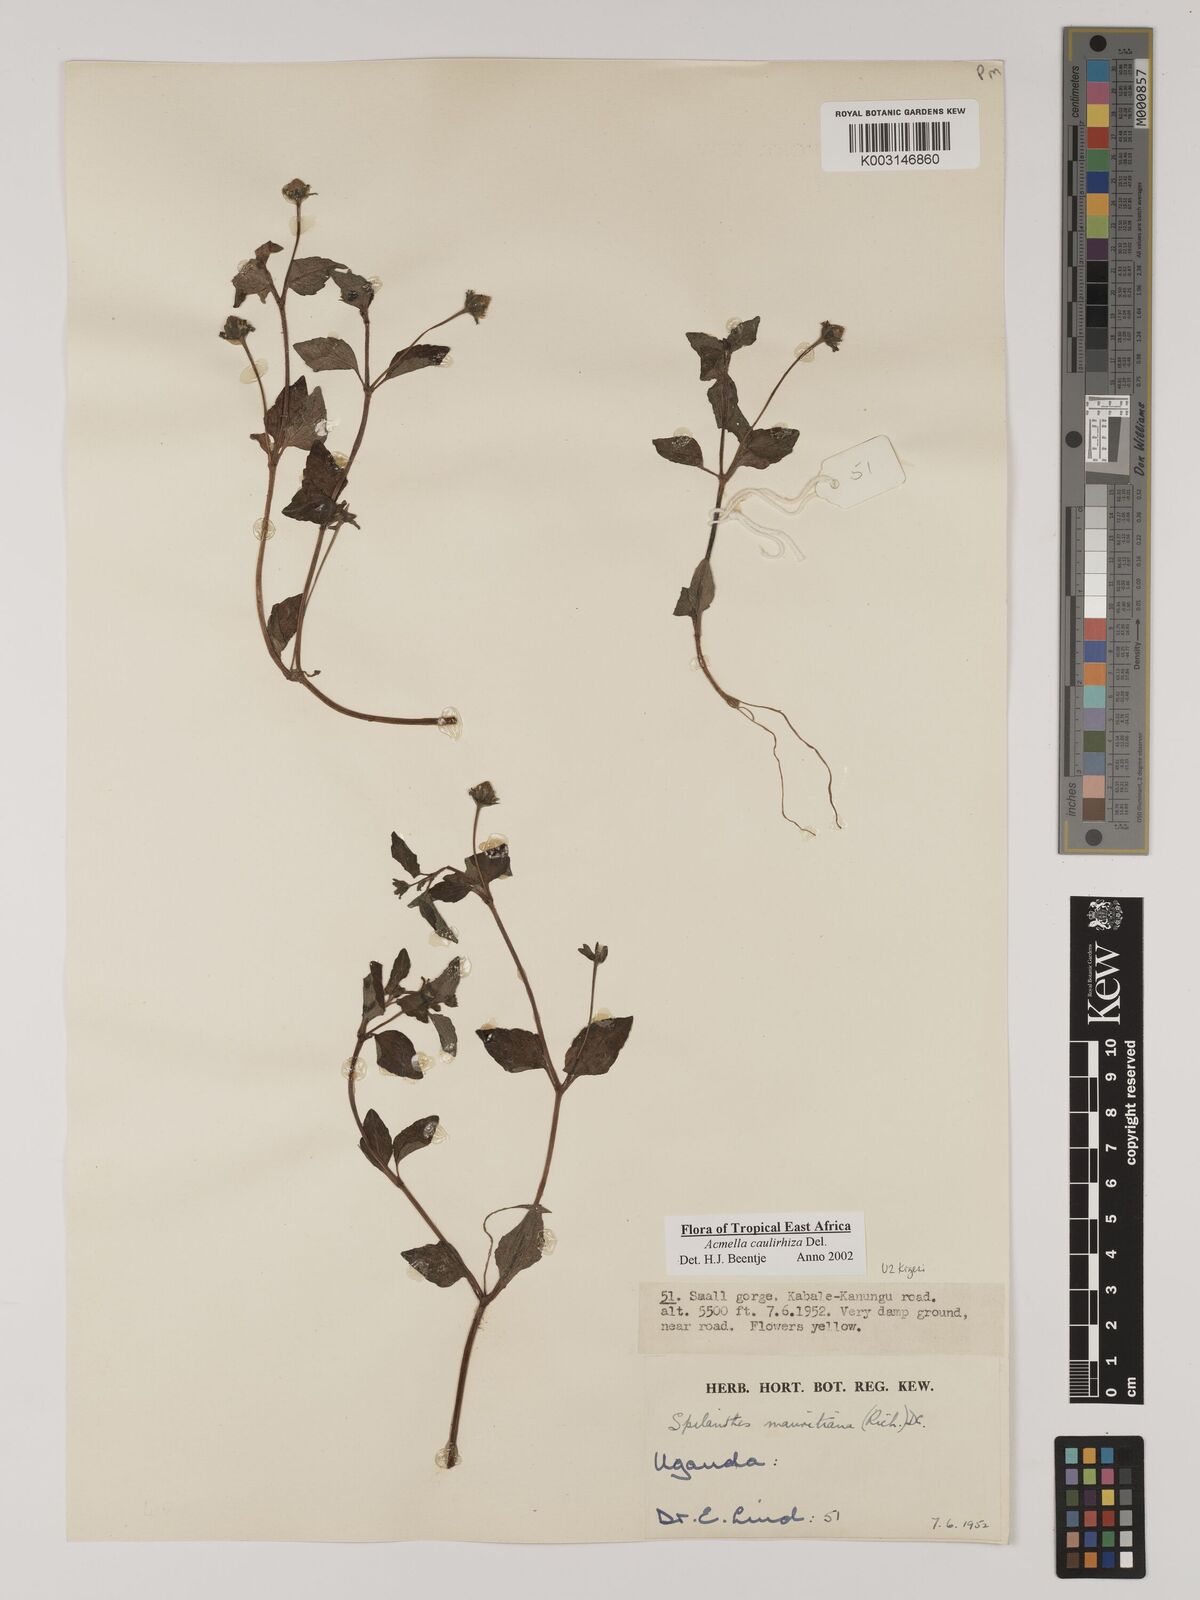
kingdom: Plantae
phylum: Tracheophyta
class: Magnoliopsida
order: Asterales
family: Asteraceae
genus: Acmella
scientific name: Acmella caulirhiza
